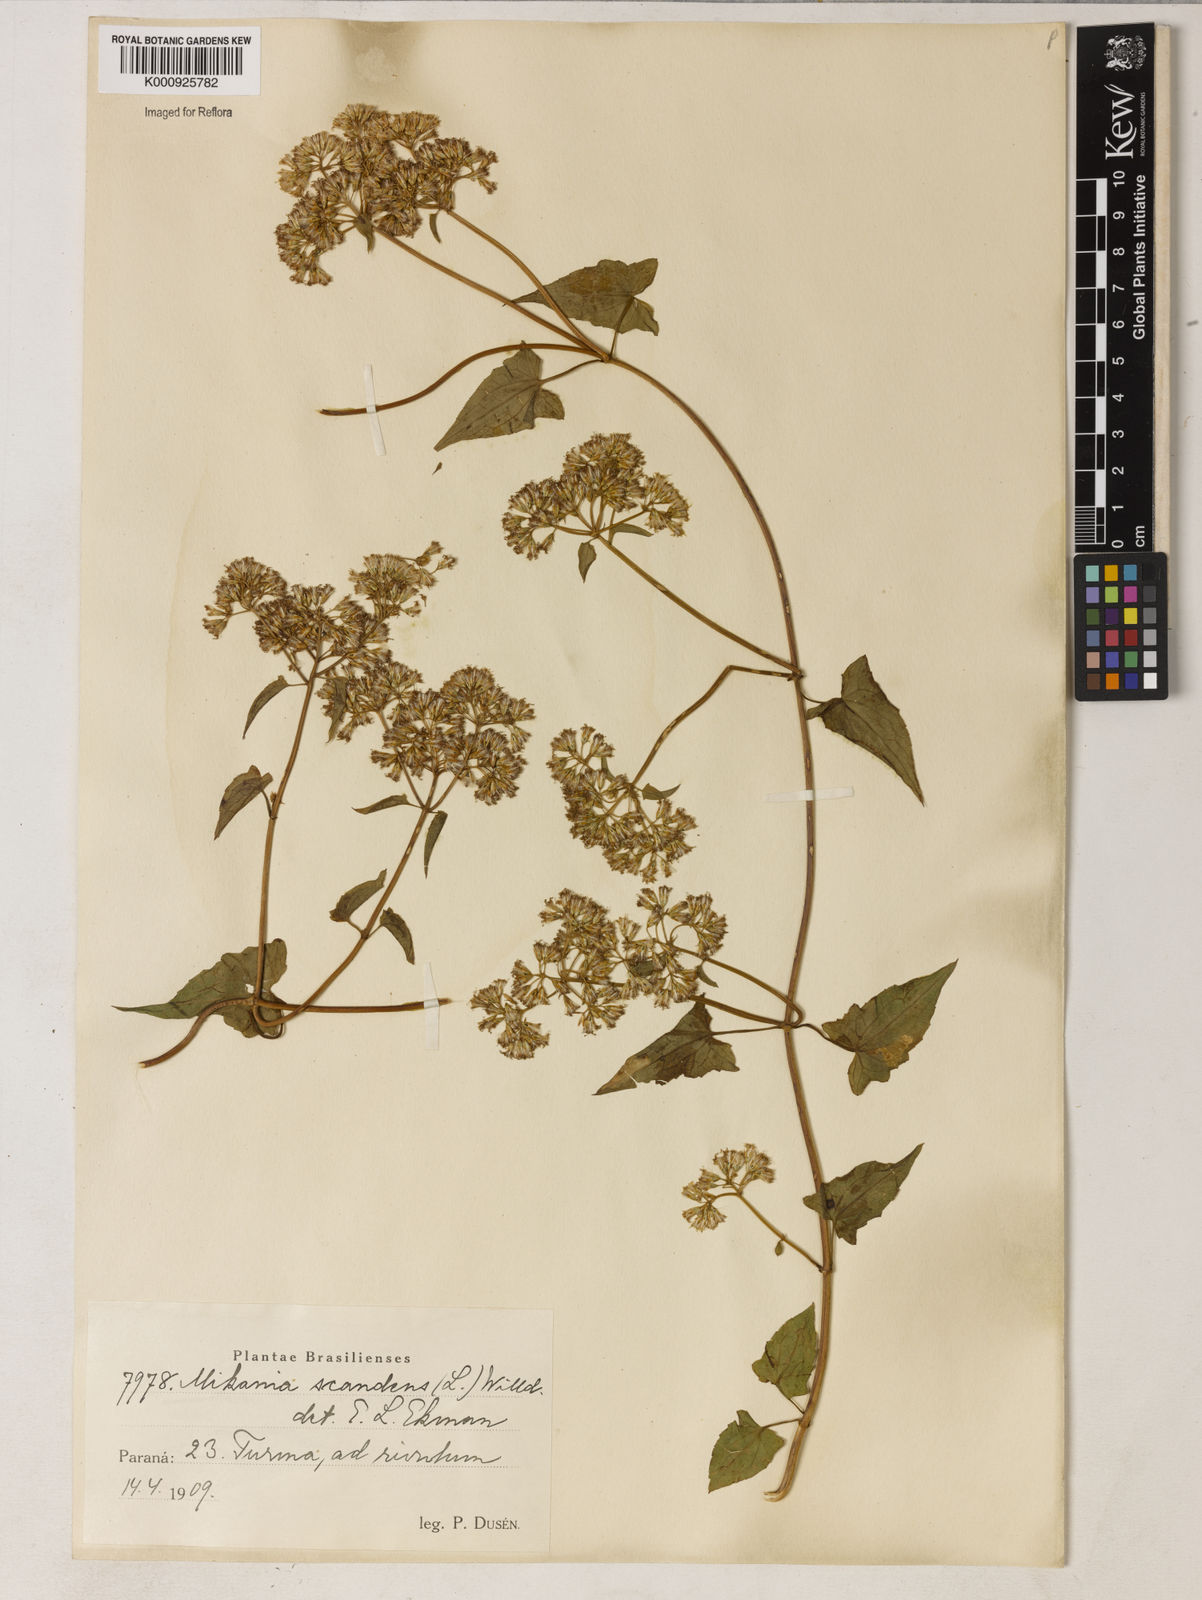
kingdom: Plantae
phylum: Tracheophyta
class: Magnoliopsida
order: Asterales
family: Asteraceae
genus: Mikania
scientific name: Mikania
